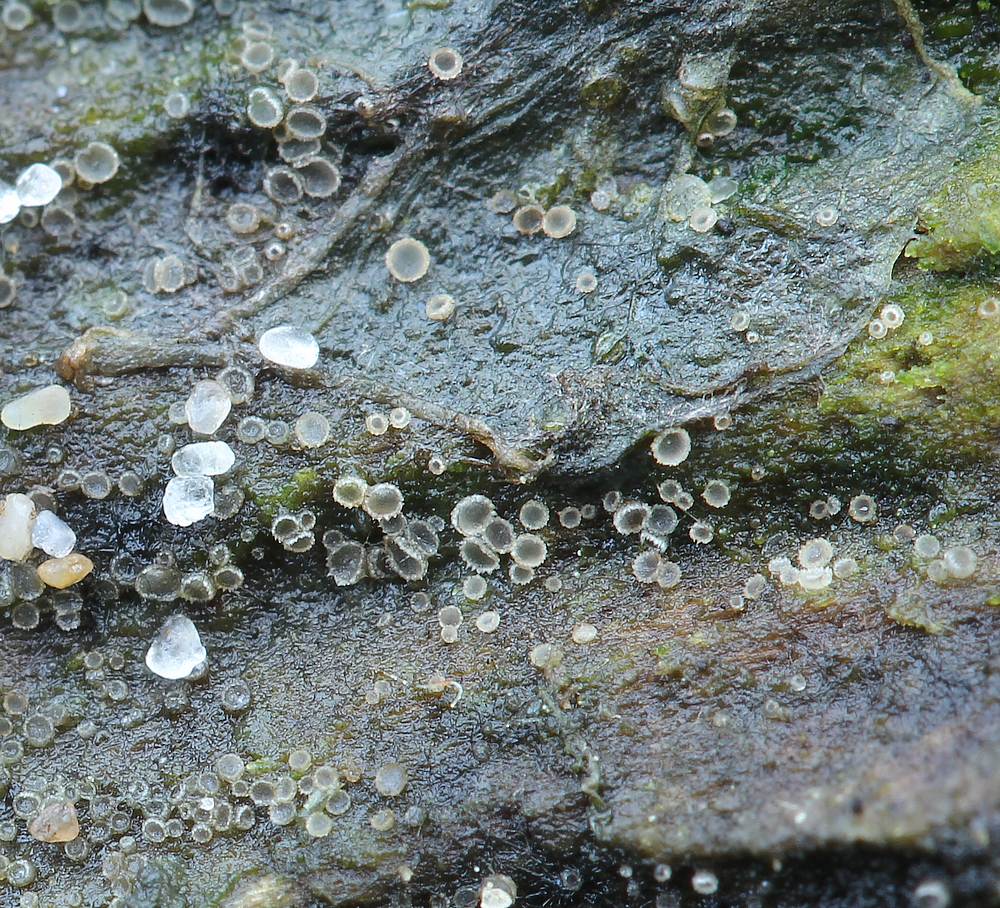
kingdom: Fungi
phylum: Ascomycota
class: Leotiomycetes
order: Helotiales
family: Hyaloscyphaceae
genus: Protounguicularia
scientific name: Protounguicularia transiens
